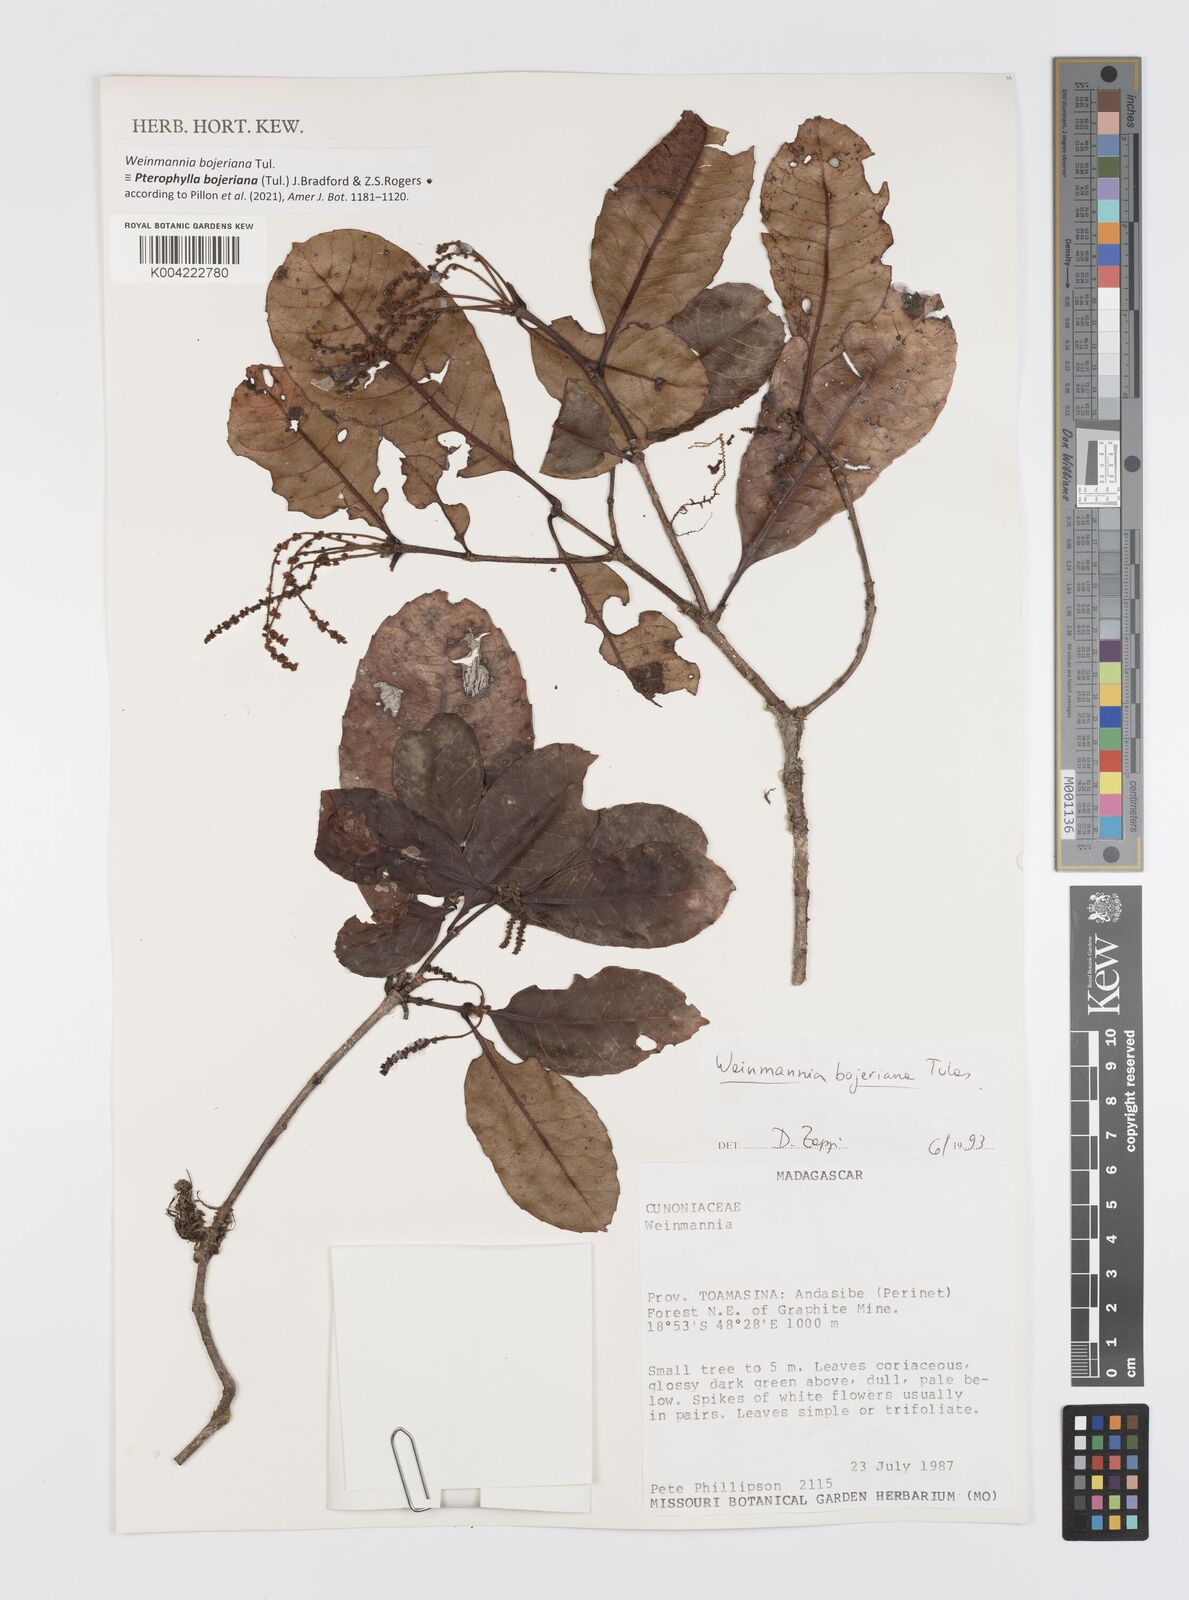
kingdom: Plantae
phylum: Tracheophyta
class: Magnoliopsida
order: Oxalidales
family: Cunoniaceae
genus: Pterophylla
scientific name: Pterophylla
